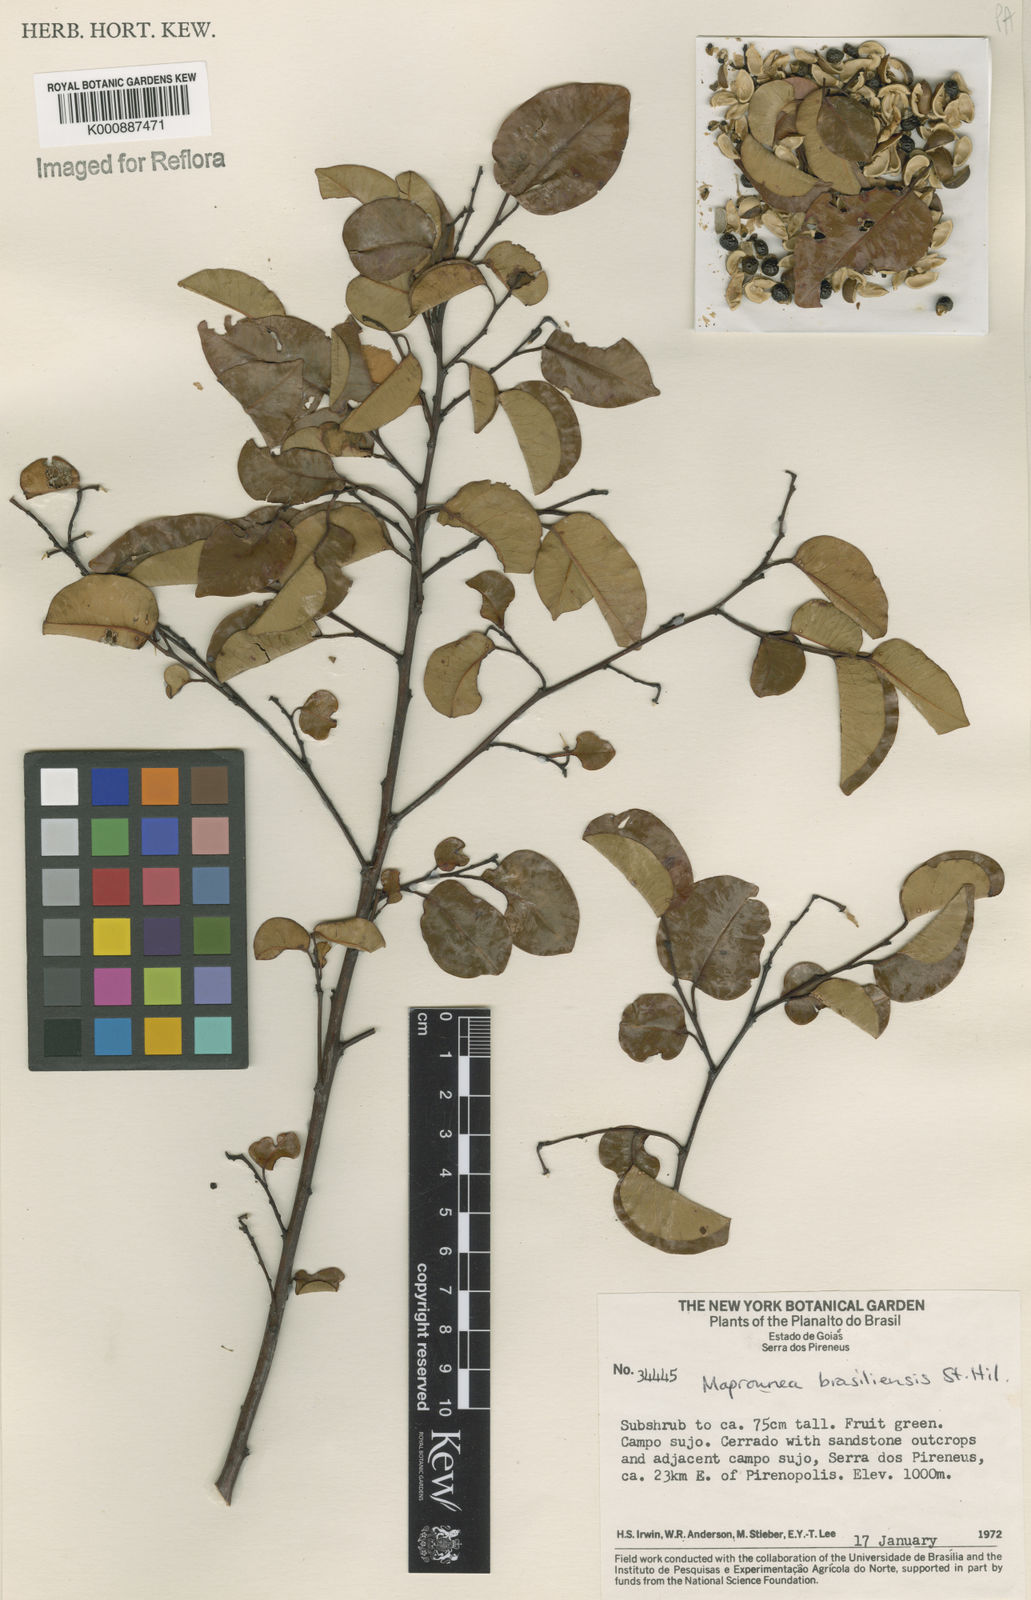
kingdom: Plantae
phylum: Tracheophyta
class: Magnoliopsida
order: Malpighiales
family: Euphorbiaceae
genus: Maprounea
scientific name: Maprounea brasiliensis
